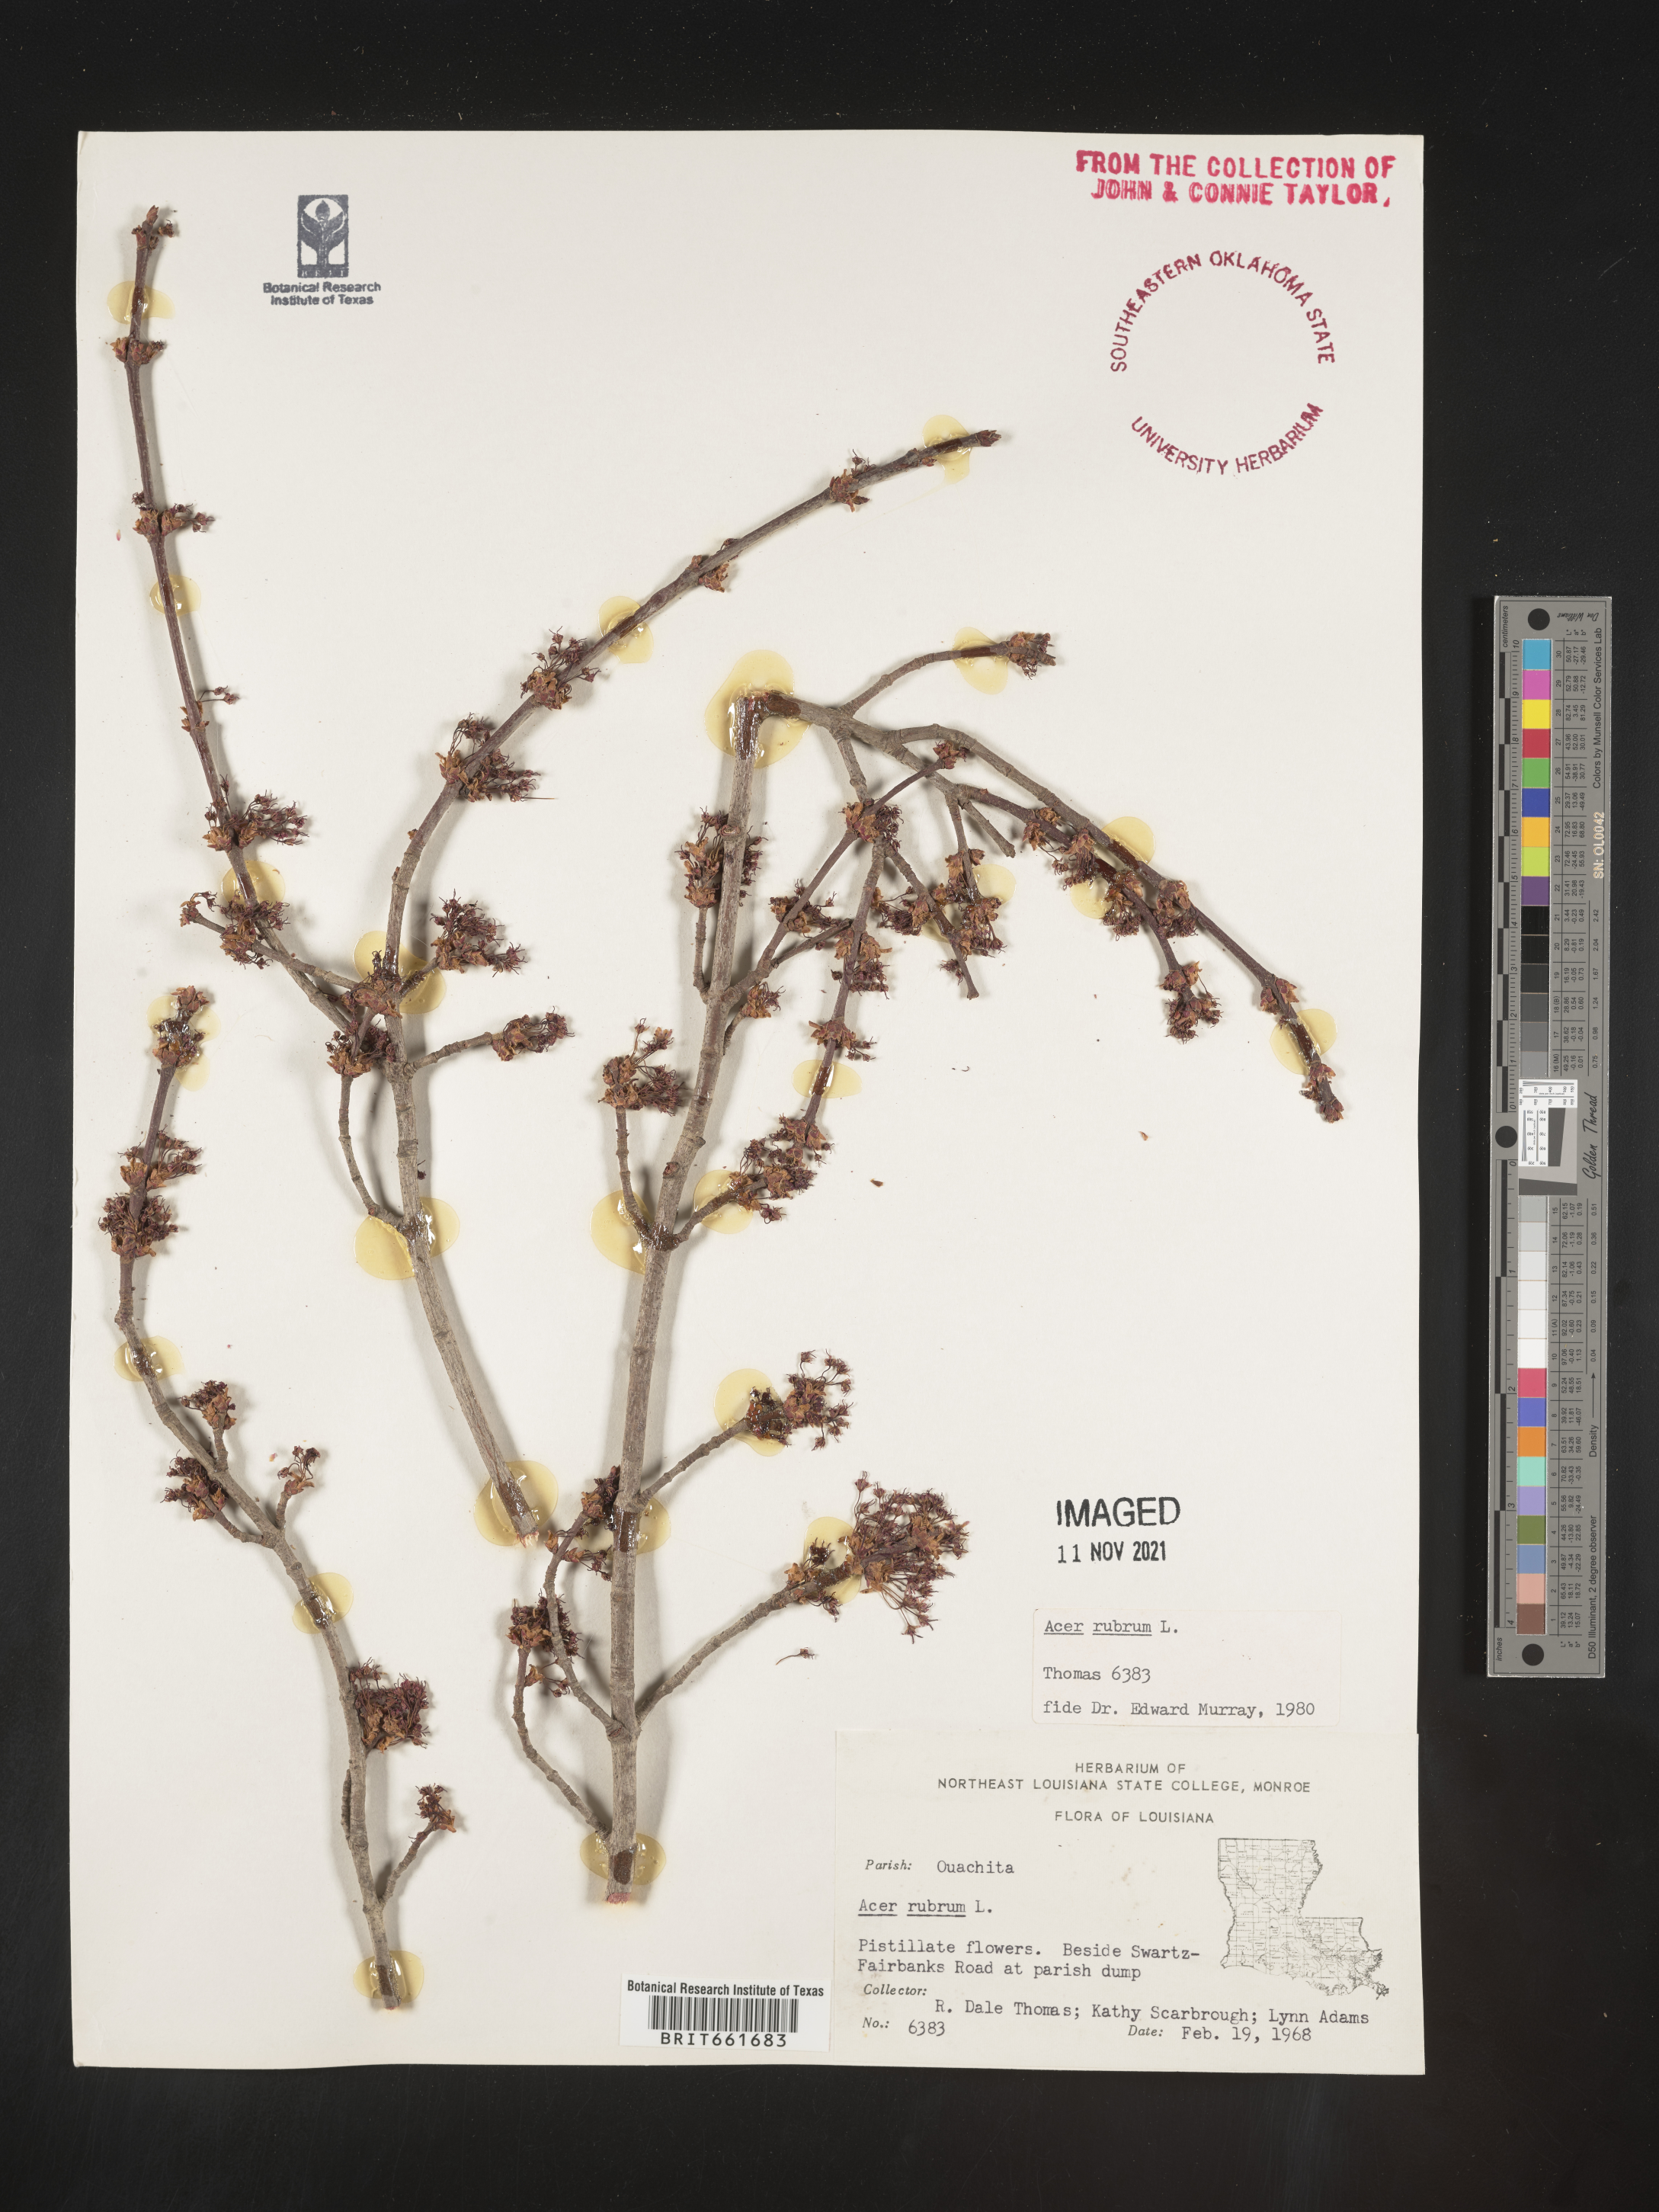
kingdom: Plantae
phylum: Tracheophyta
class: Magnoliopsida
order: Sapindales
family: Sapindaceae
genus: Acer
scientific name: Acer rubrum
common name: Red maple
